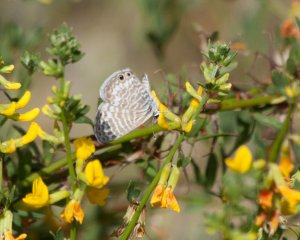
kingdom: Animalia
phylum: Arthropoda
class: Insecta
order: Lepidoptera
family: Lycaenidae
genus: Leptotes
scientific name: Leptotes marina
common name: Marine Blue
